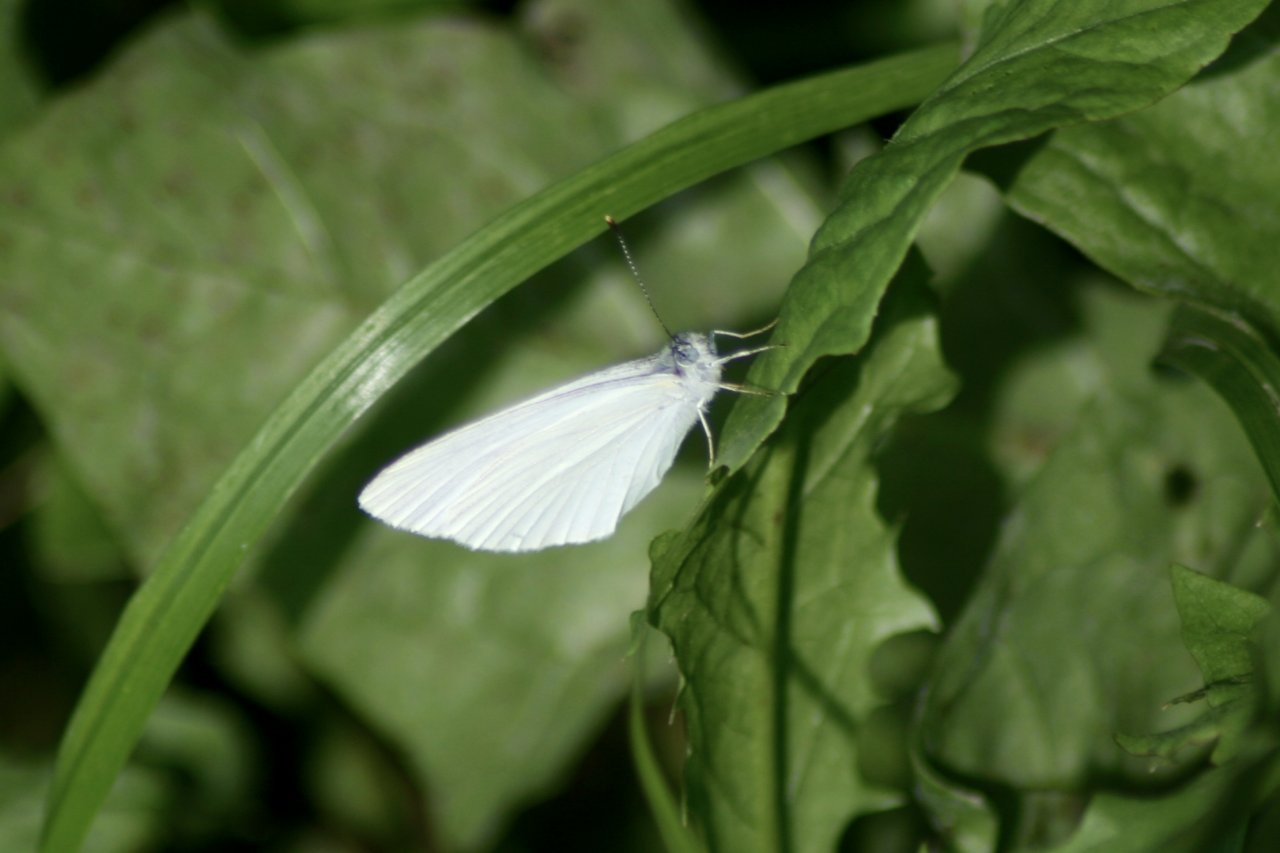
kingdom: Animalia
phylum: Arthropoda
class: Insecta
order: Lepidoptera
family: Pieridae
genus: Pieris
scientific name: Pieris oleracea
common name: Mustard White
